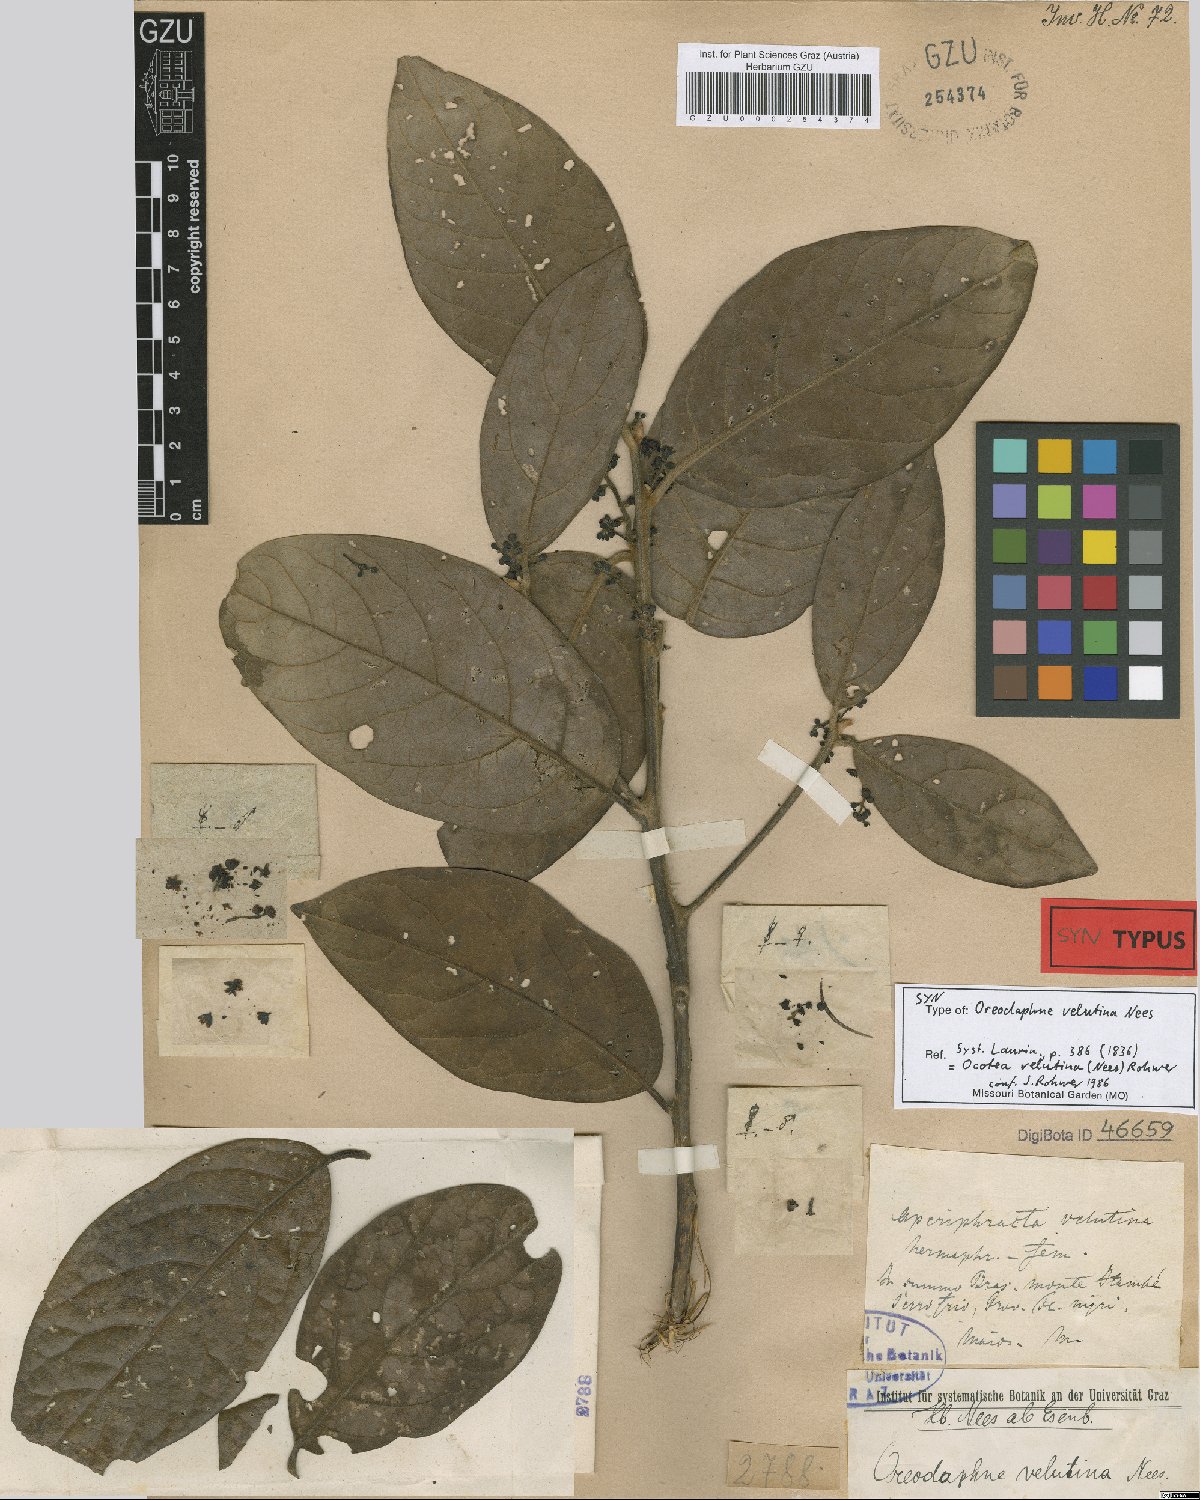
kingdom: Plantae
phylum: Tracheophyta
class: Magnoliopsida
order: Laurales
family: Lauraceae
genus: Andea
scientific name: Andea velutina
